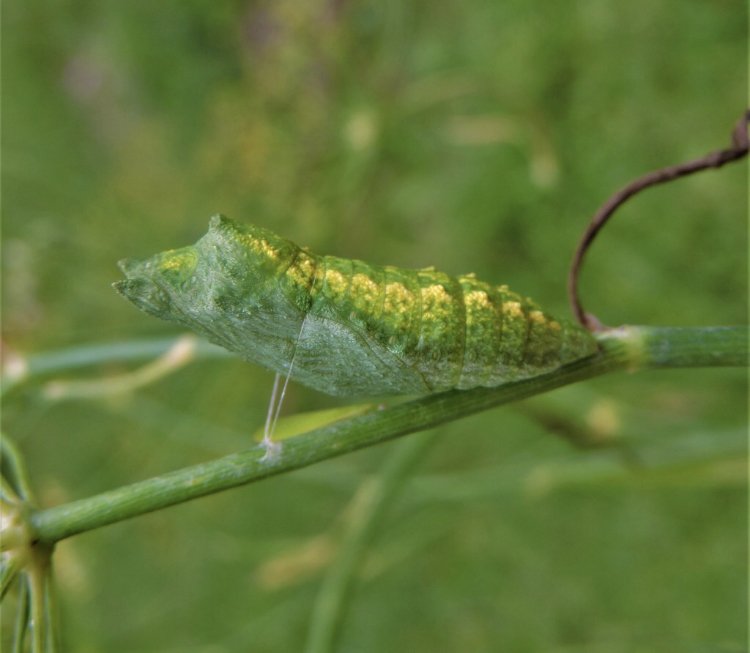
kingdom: Animalia
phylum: Arthropoda
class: Insecta
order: Lepidoptera
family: Papilionidae
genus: Papilio
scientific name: Papilio polyxenes
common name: Black Swallowtail
